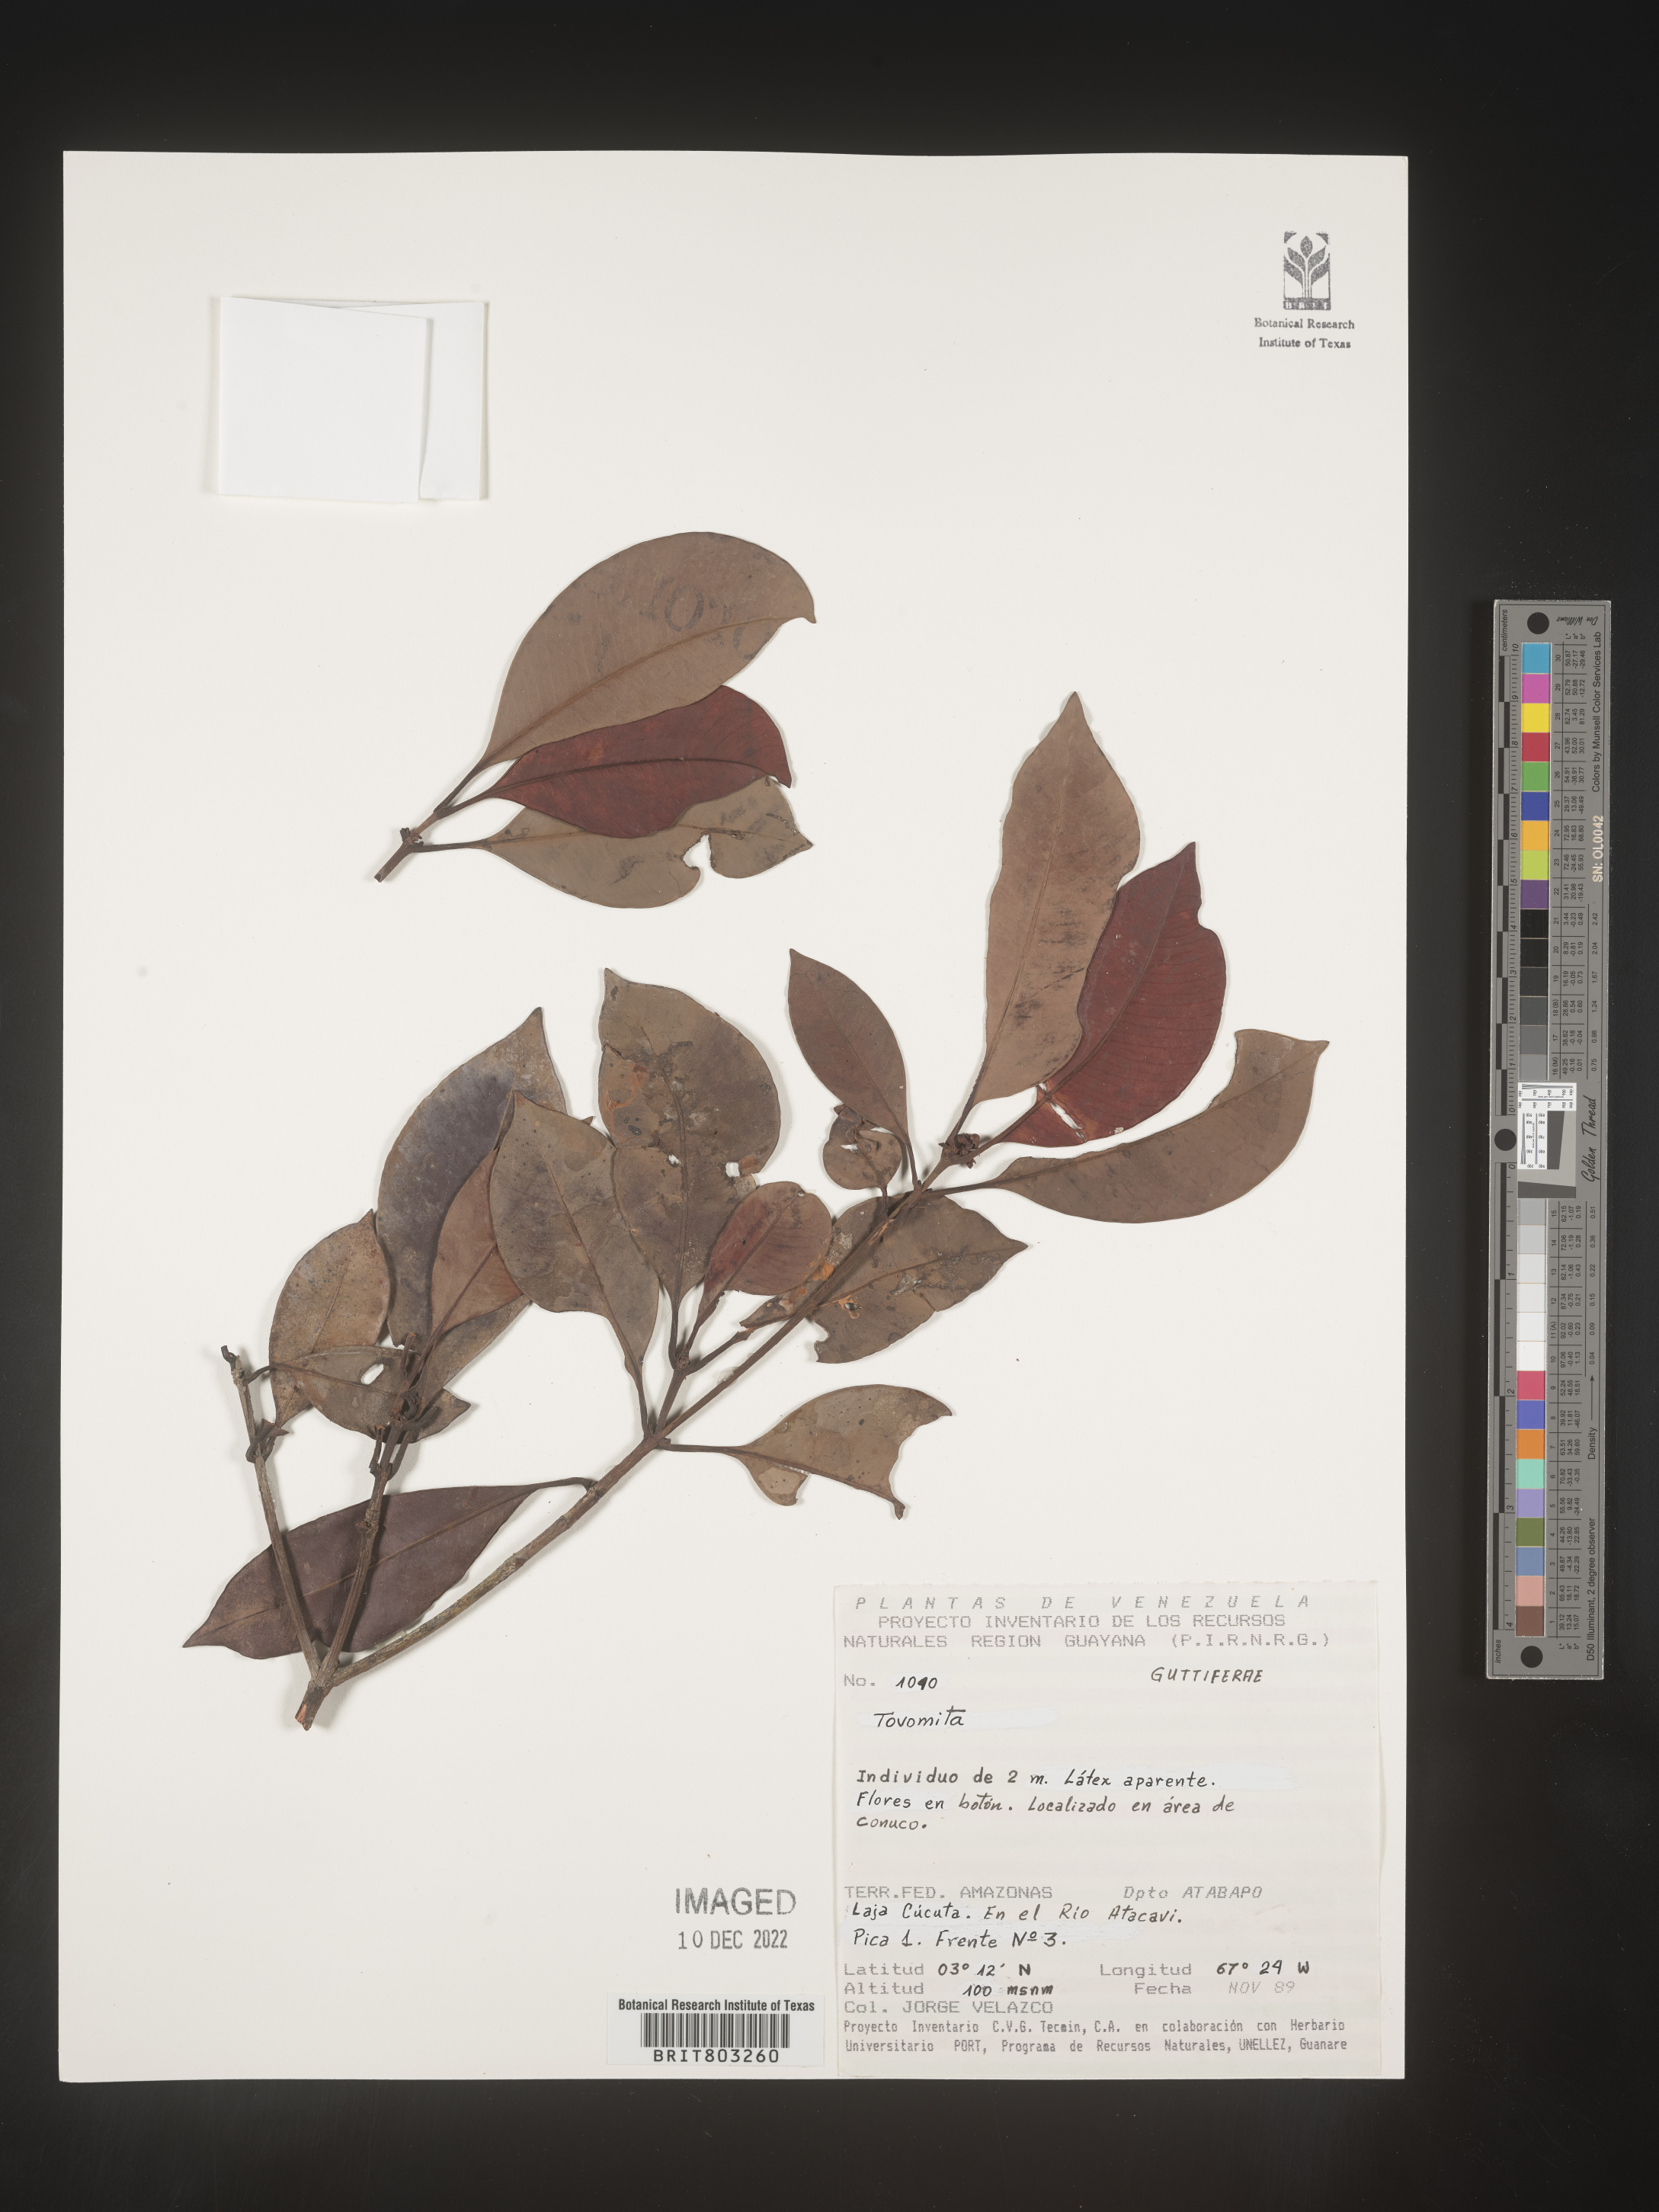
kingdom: Plantae
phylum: Tracheophyta
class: Magnoliopsida
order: Malpighiales
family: Clusiaceae
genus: Tovomita
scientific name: Tovomita
